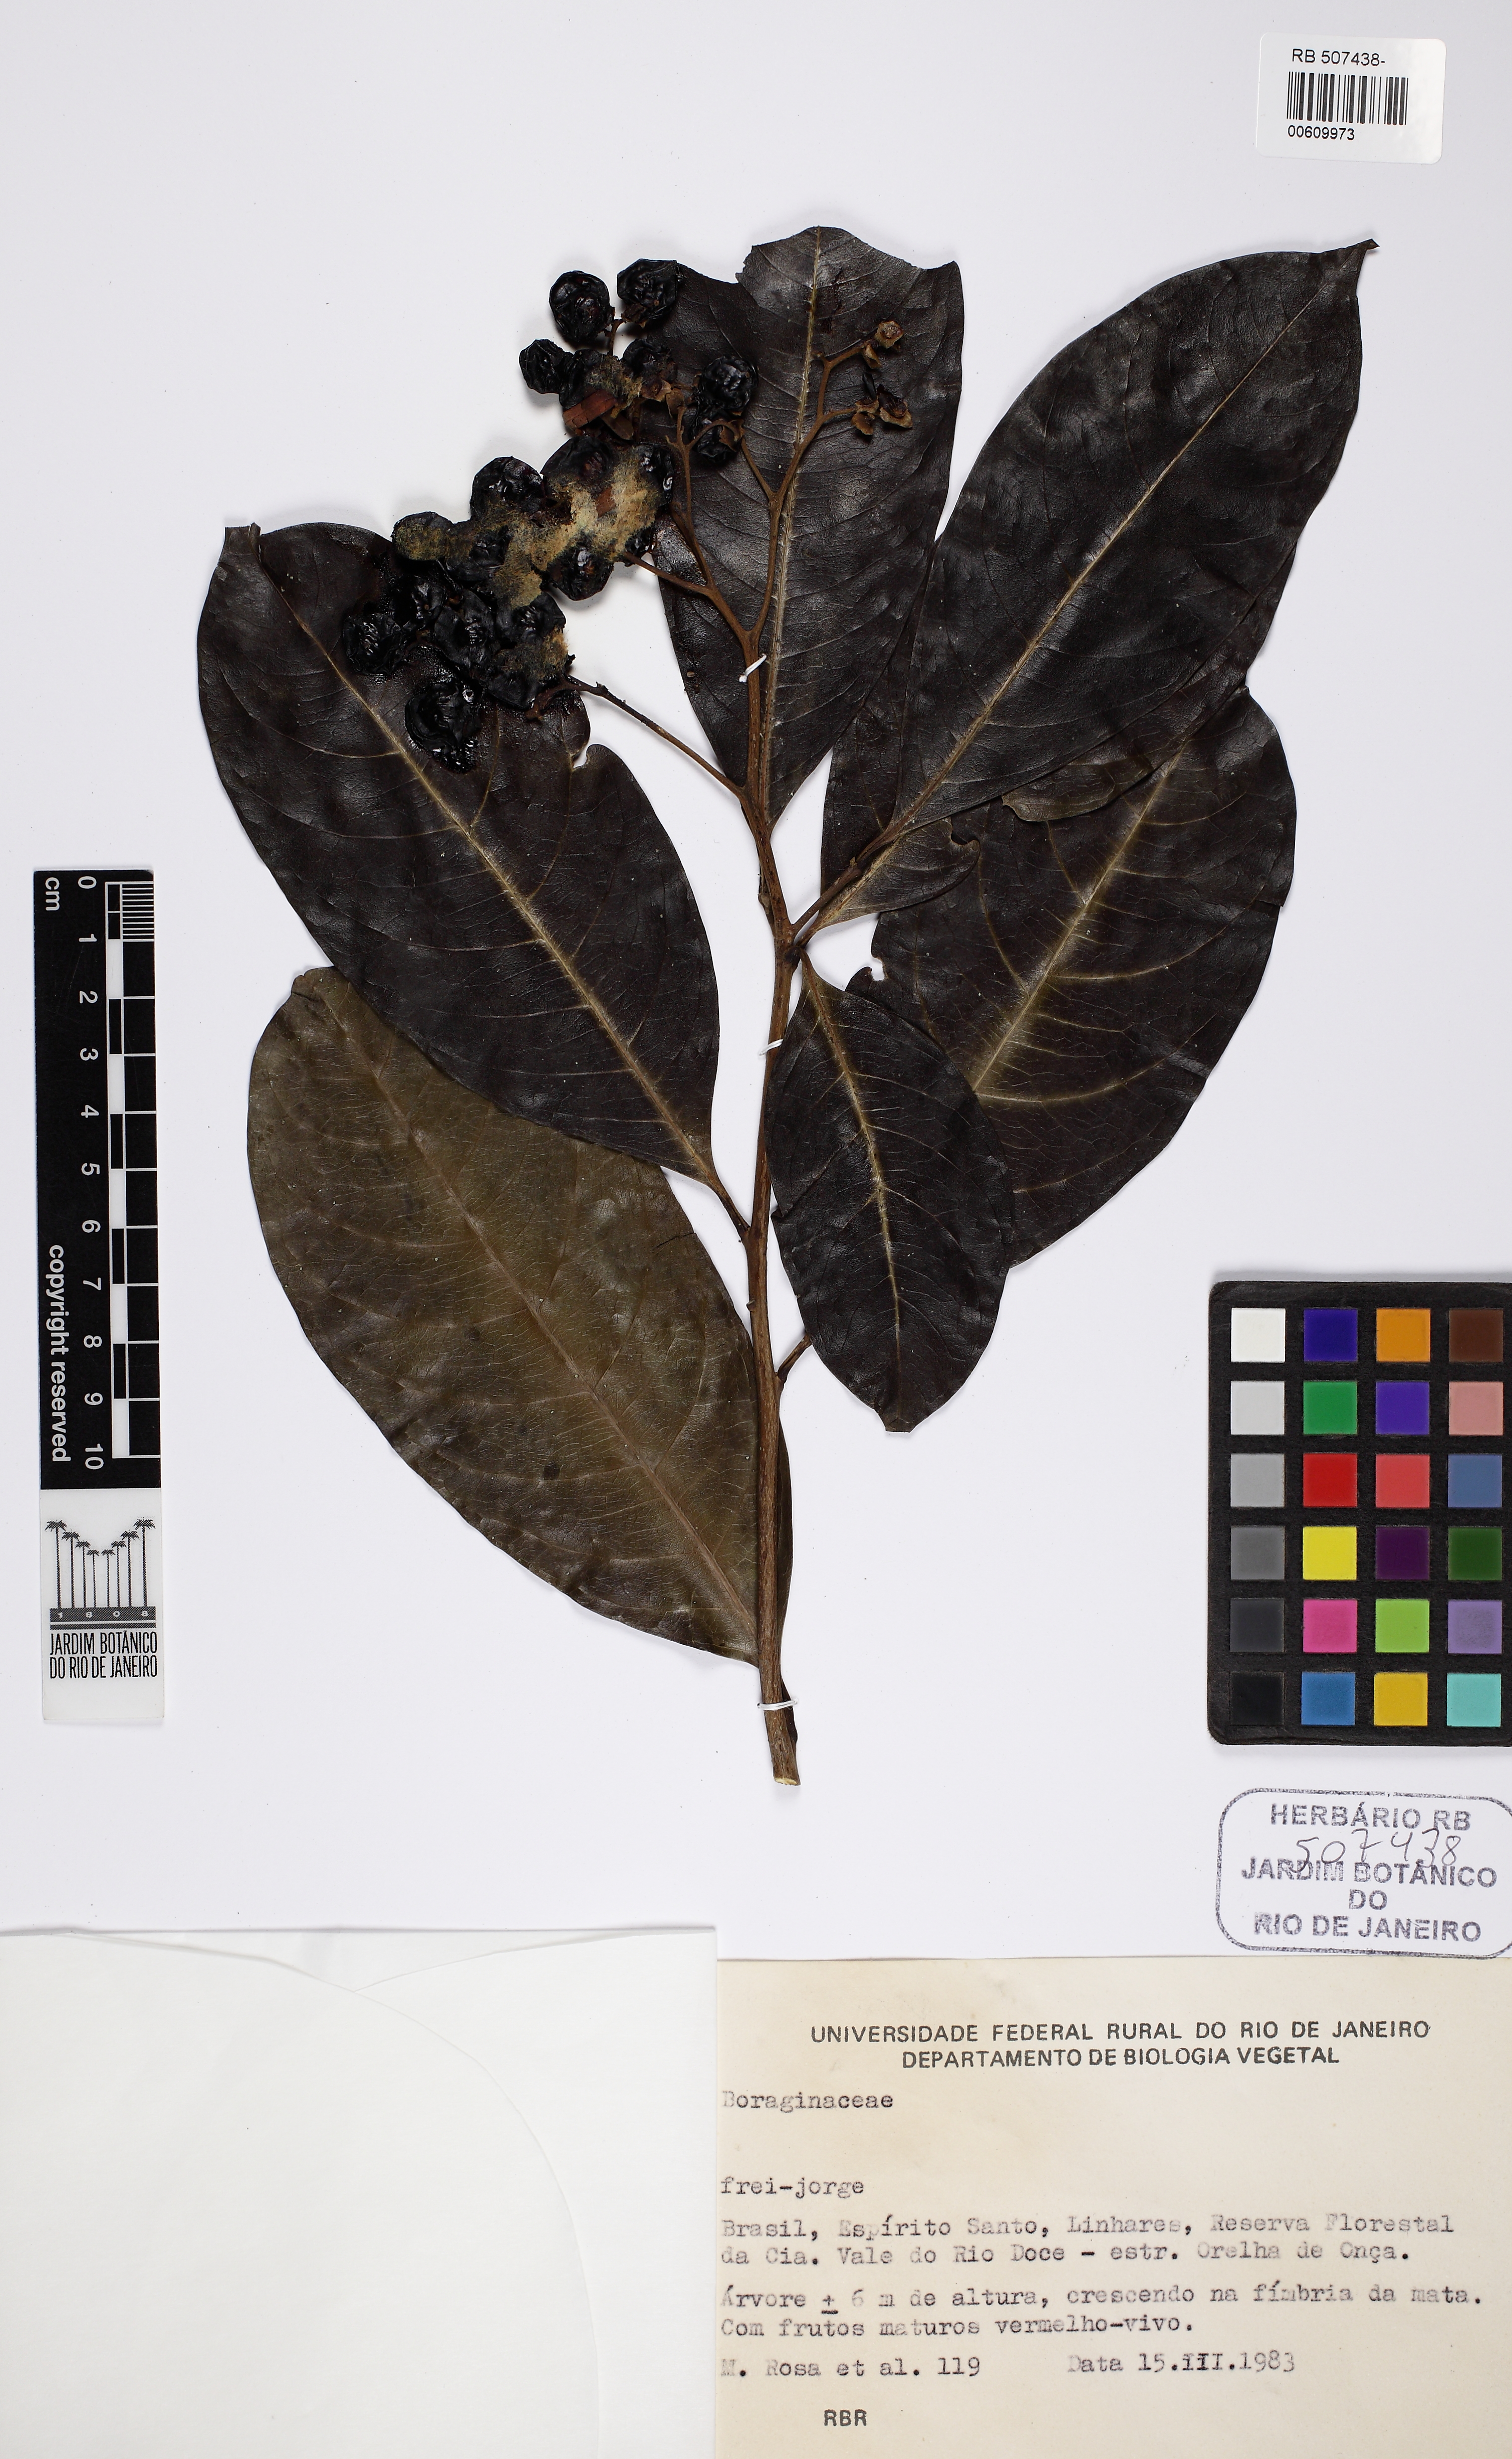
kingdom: Plantae
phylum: Tracheophyta
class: Magnoliopsida
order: Boraginales
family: Boraginaceae
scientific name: Boraginaceae
